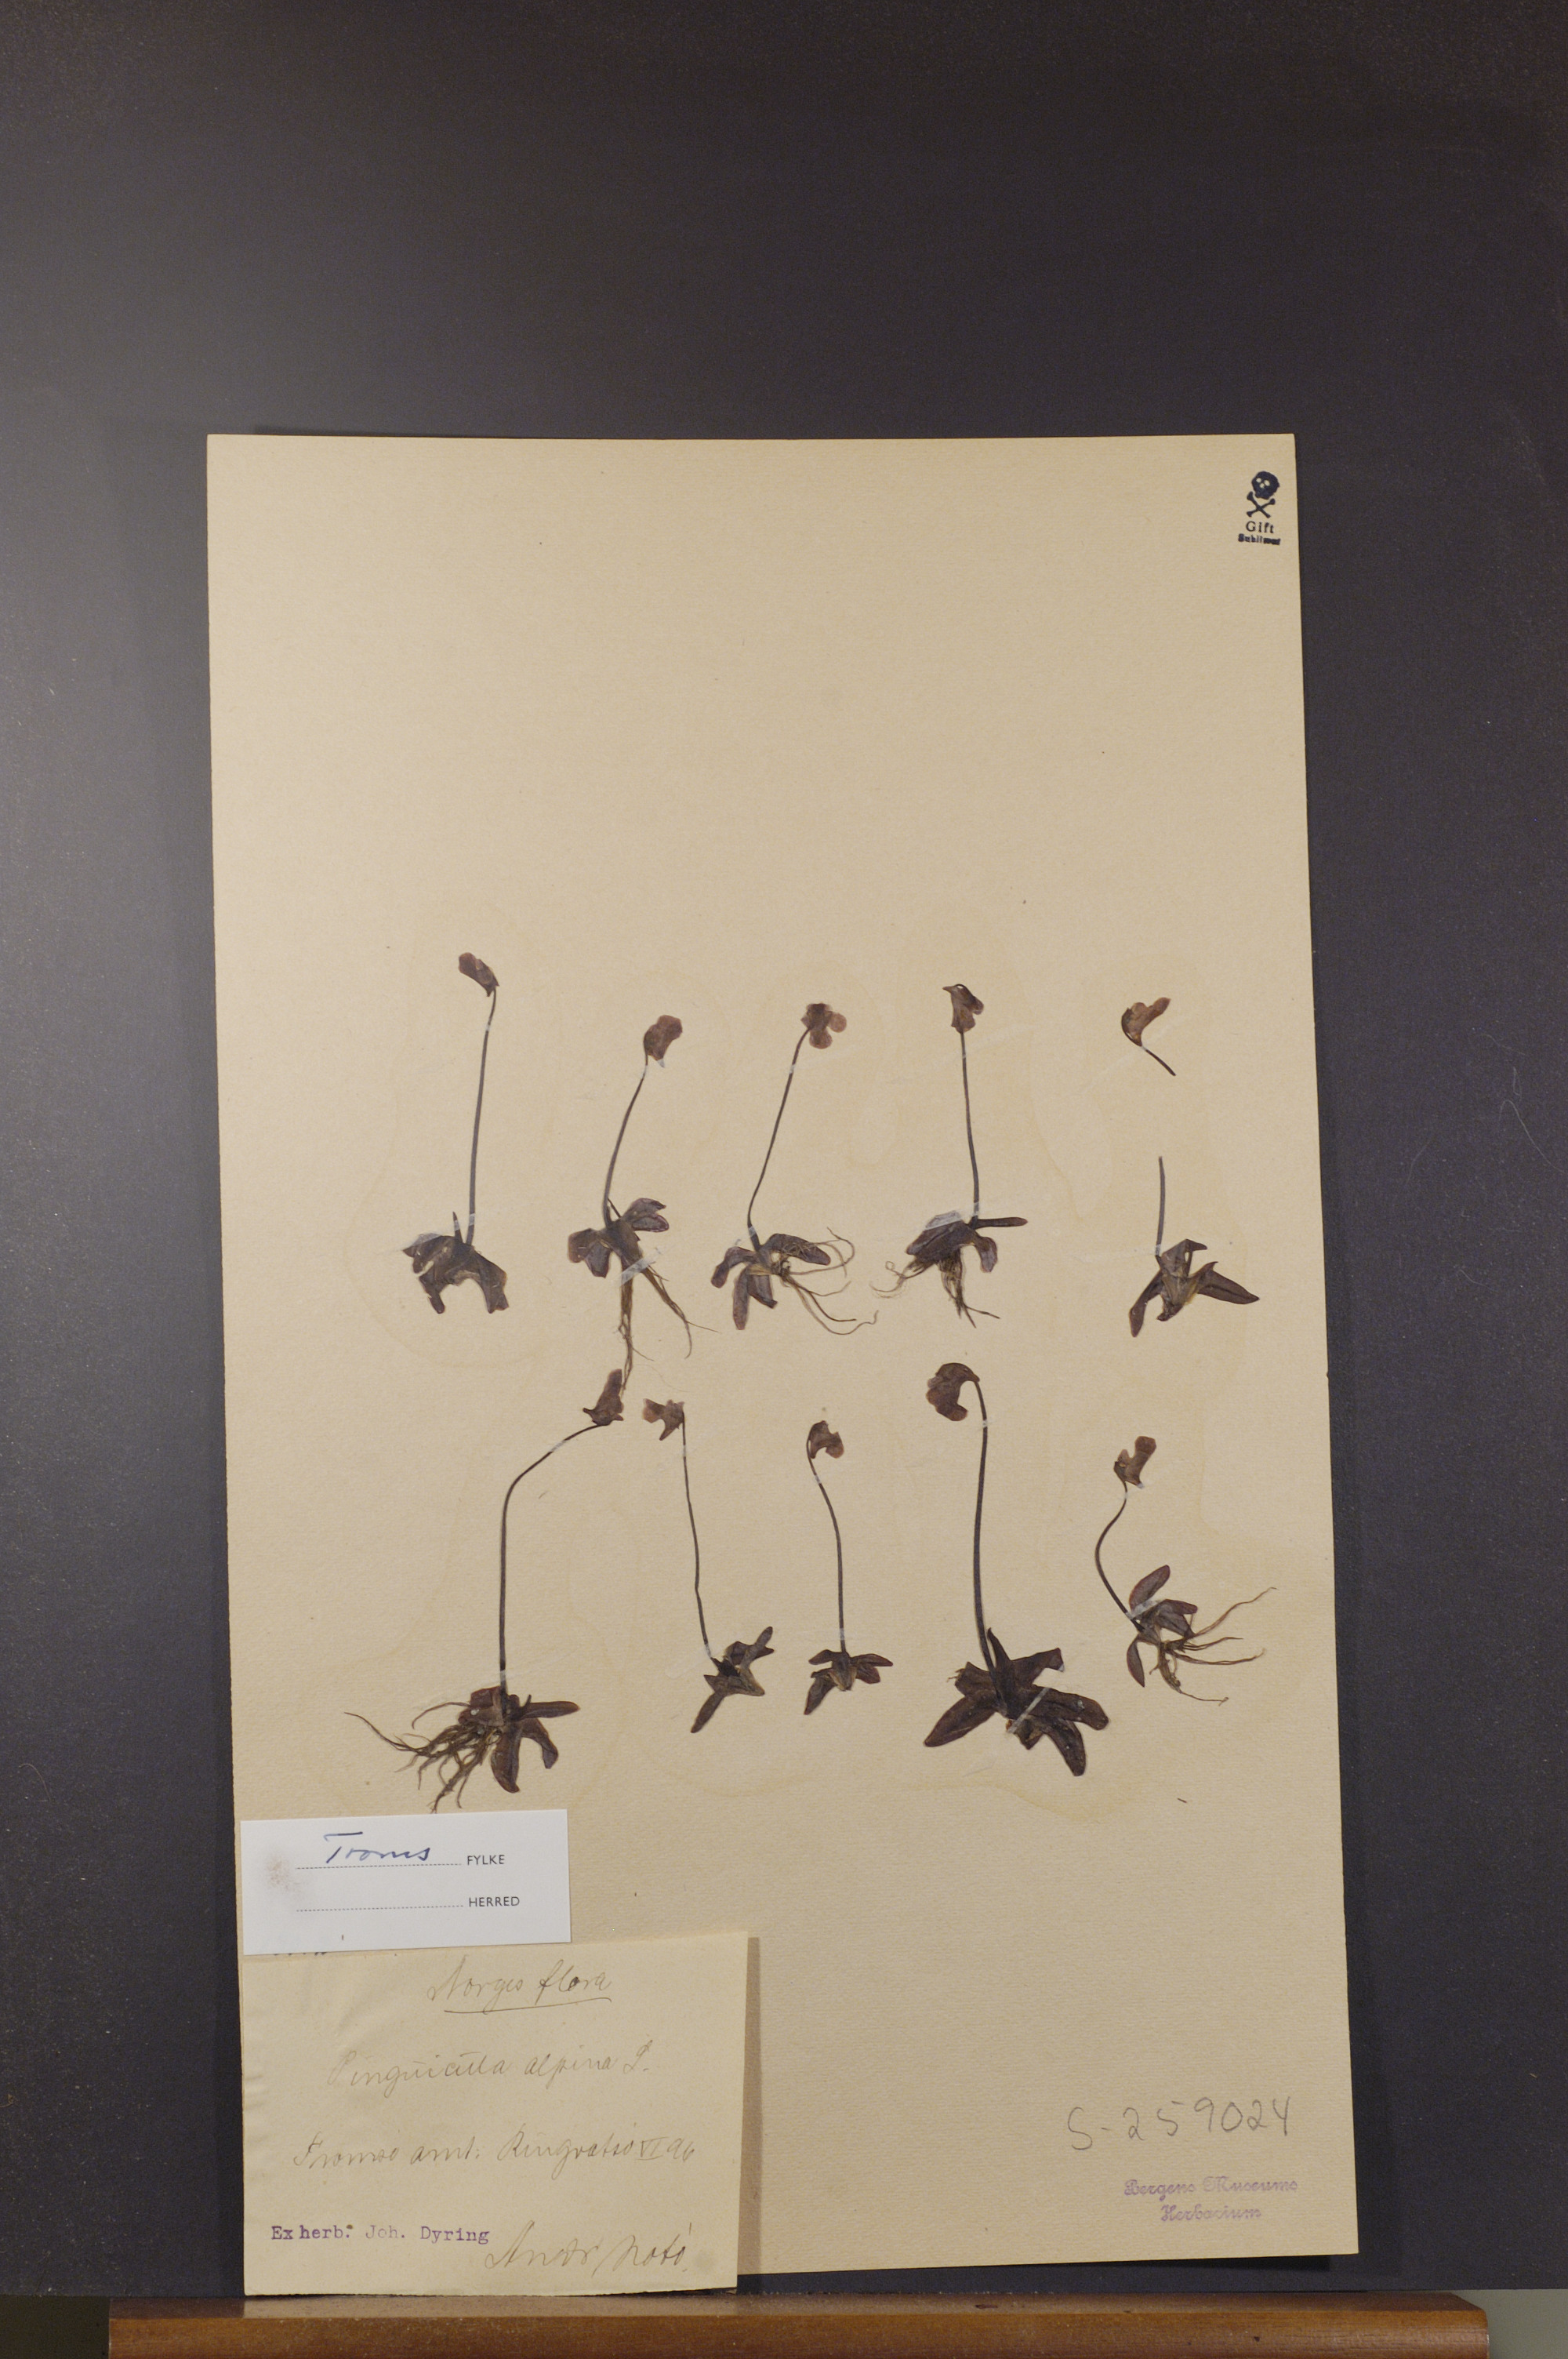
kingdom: Plantae
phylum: Tracheophyta
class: Magnoliopsida
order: Lamiales
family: Lentibulariaceae
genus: Pinguicula
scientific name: Pinguicula alpina
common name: Alpine butterwort
